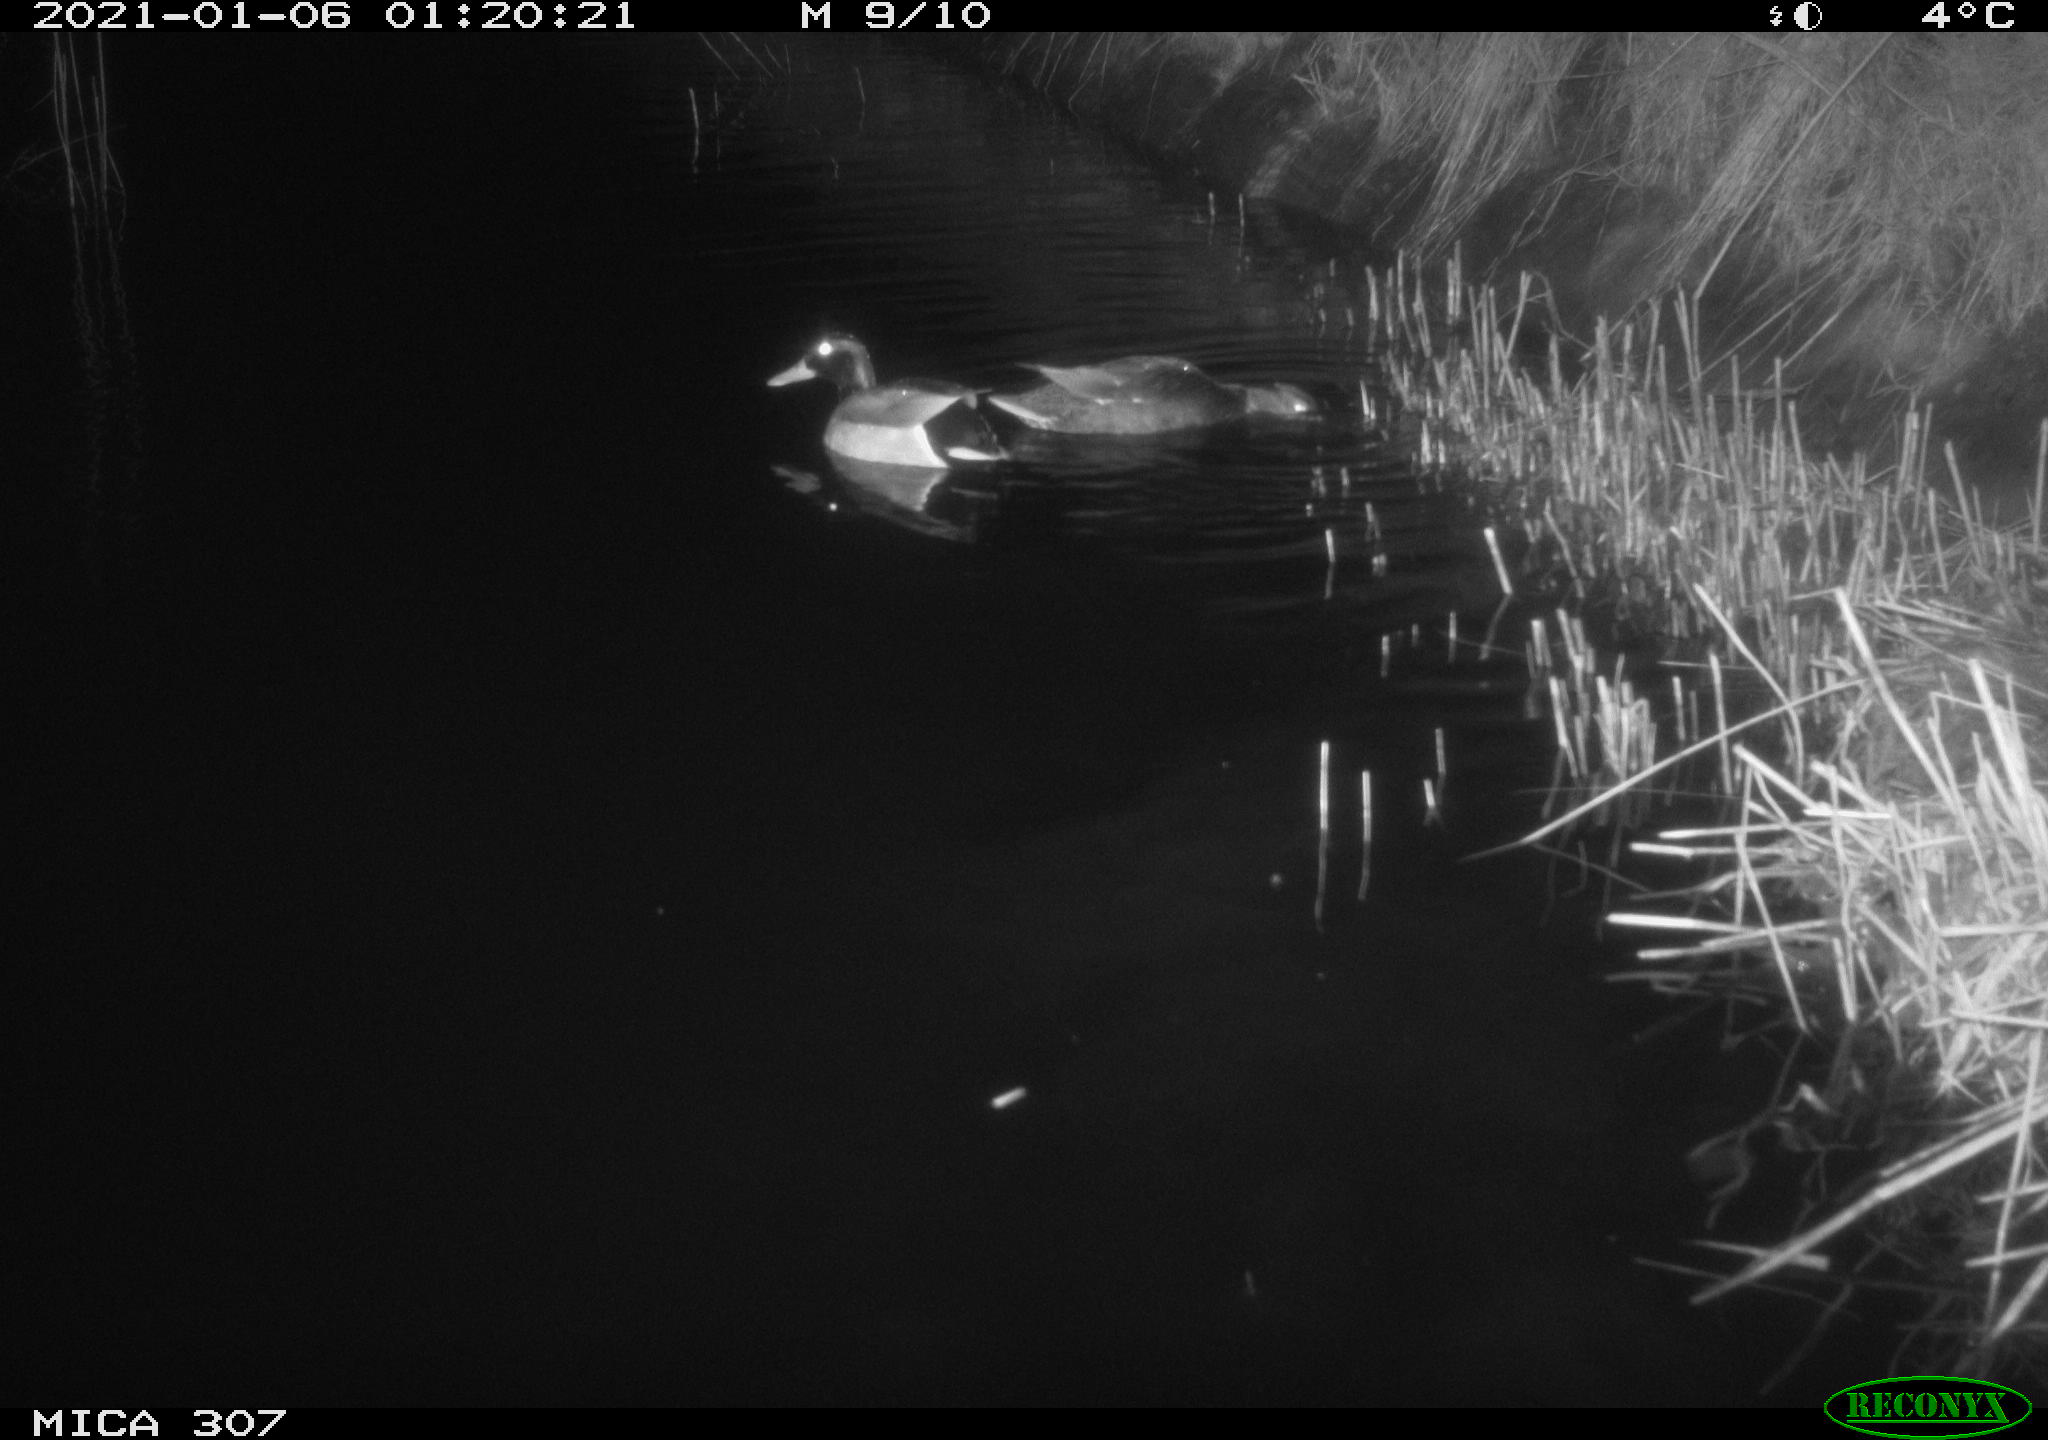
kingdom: Animalia
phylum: Chordata
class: Aves
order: Anseriformes
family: Anatidae
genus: Anas
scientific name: Anas platyrhynchos
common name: Mallard
